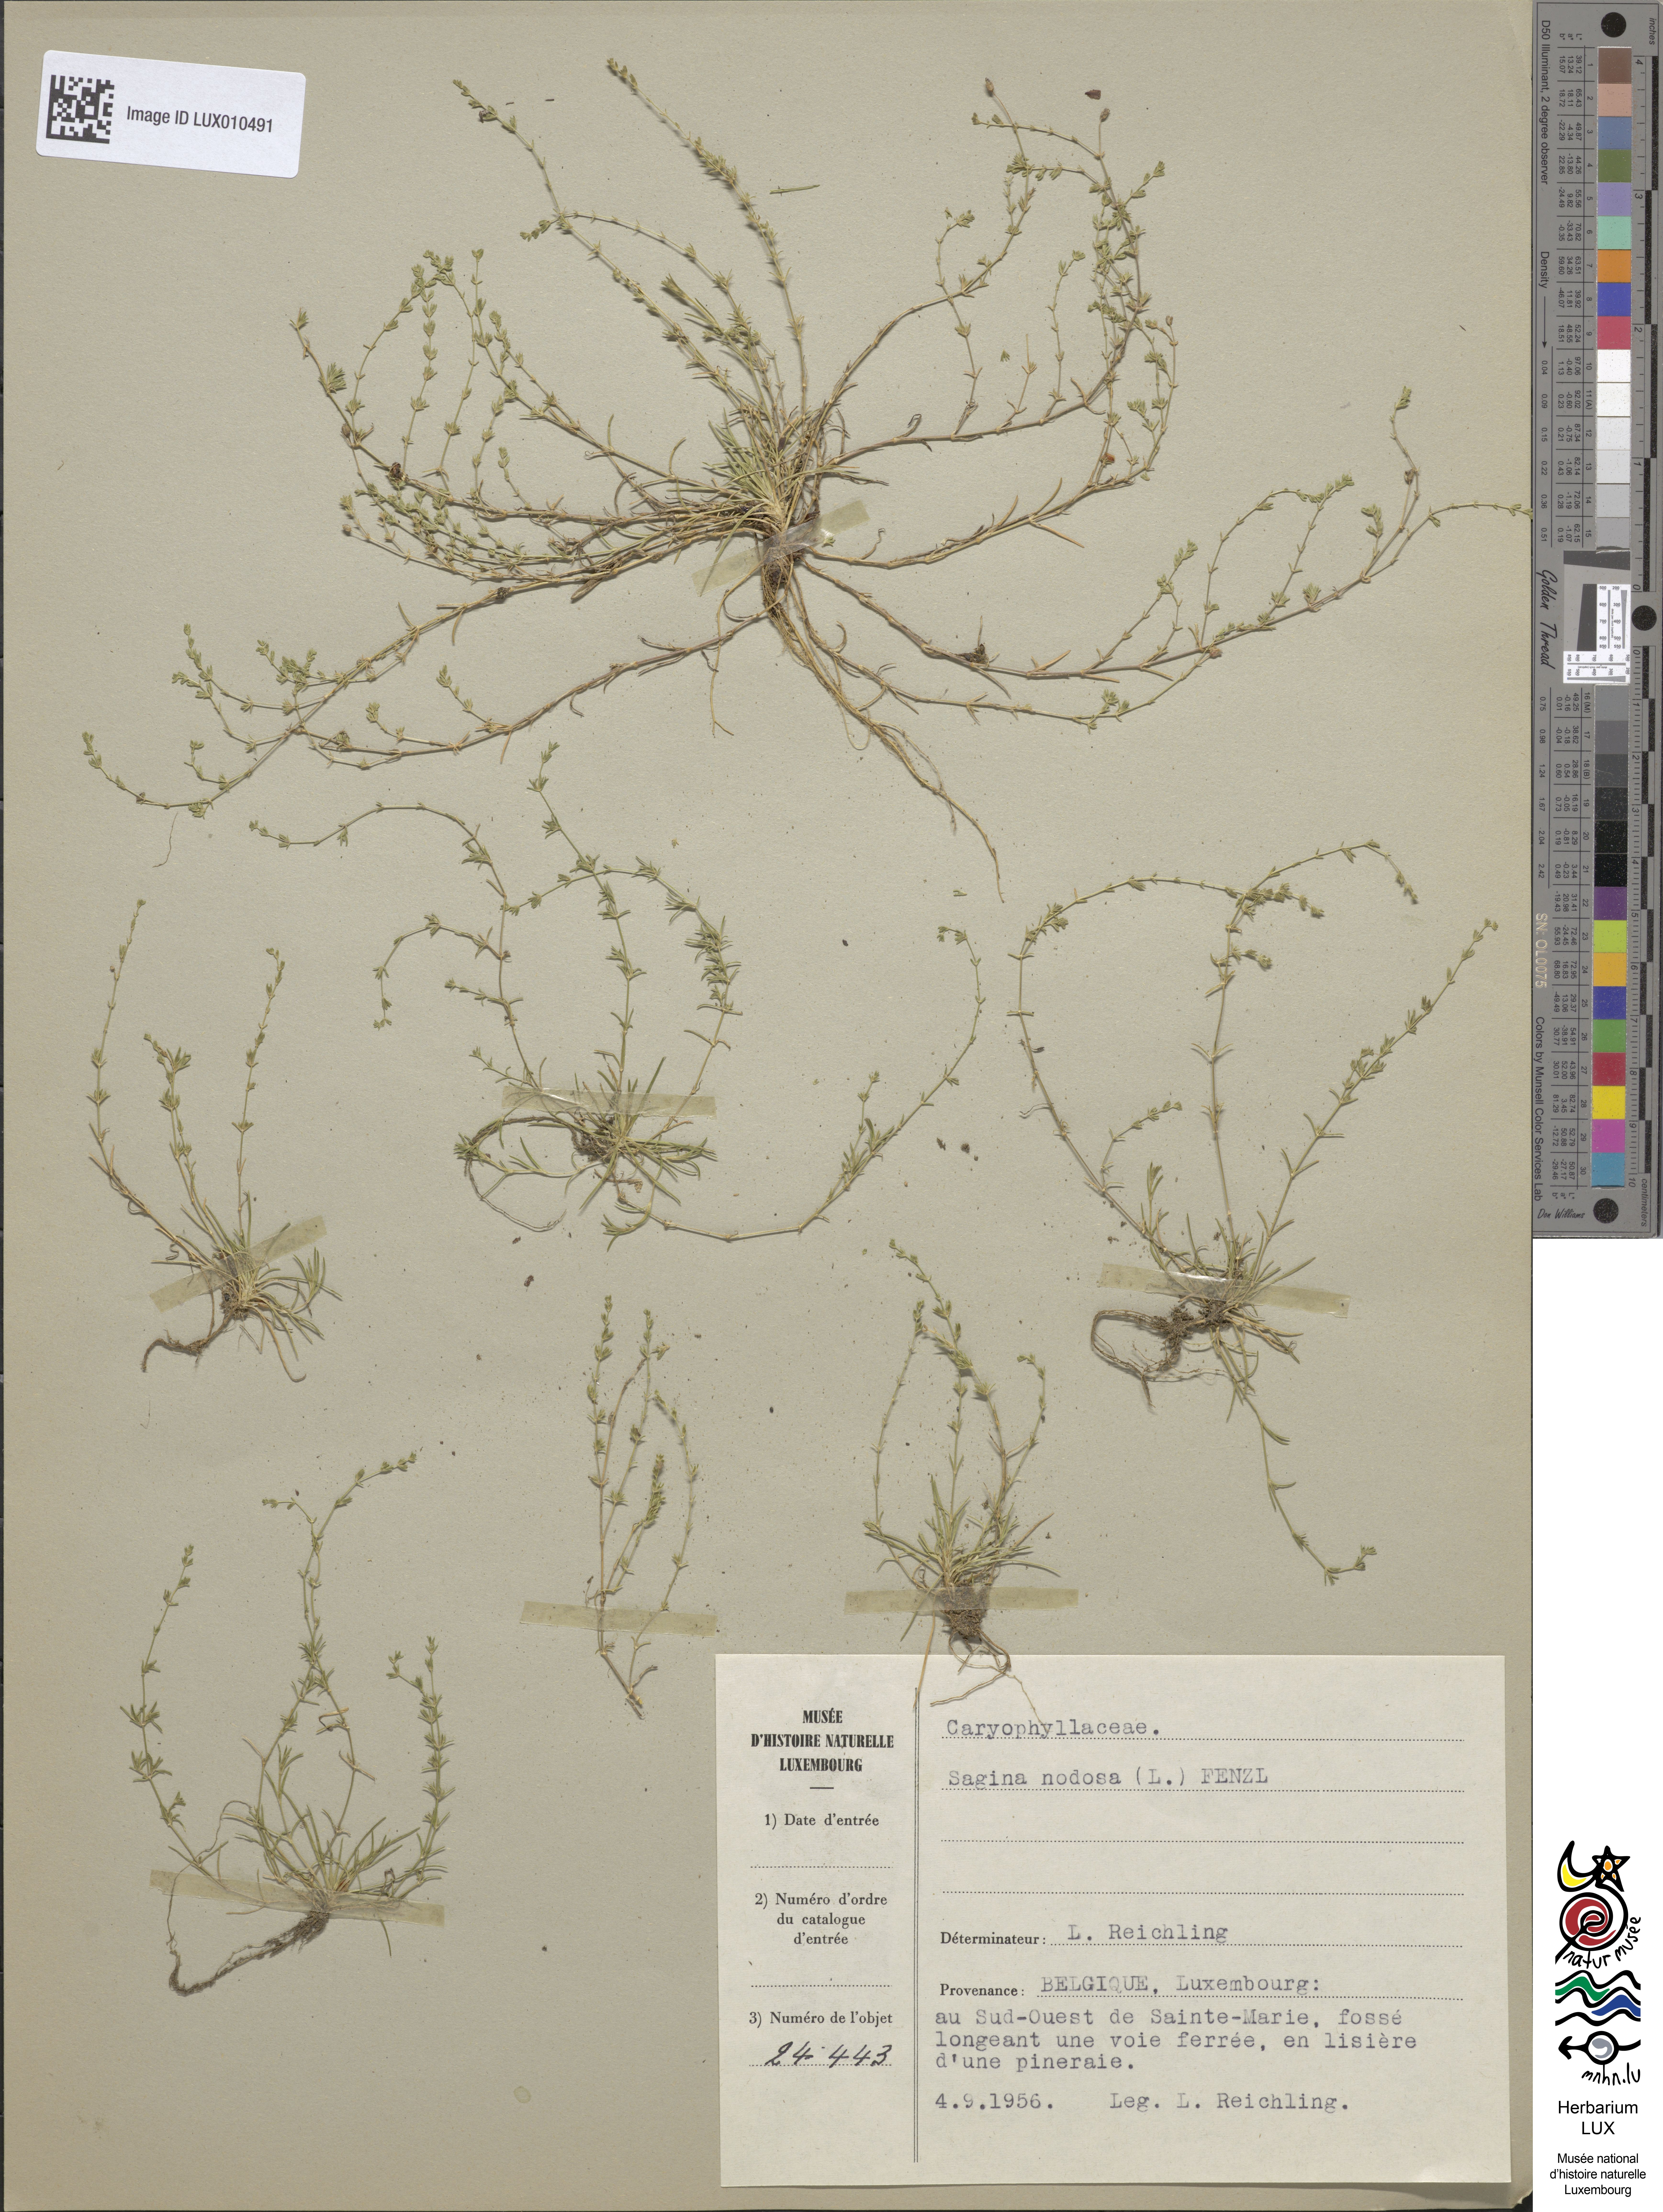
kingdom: Plantae
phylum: Tracheophyta
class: Magnoliopsida
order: Caryophyllales
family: Caryophyllaceae
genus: Sagina
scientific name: Sagina nodosa
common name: Knotted pearlwort
